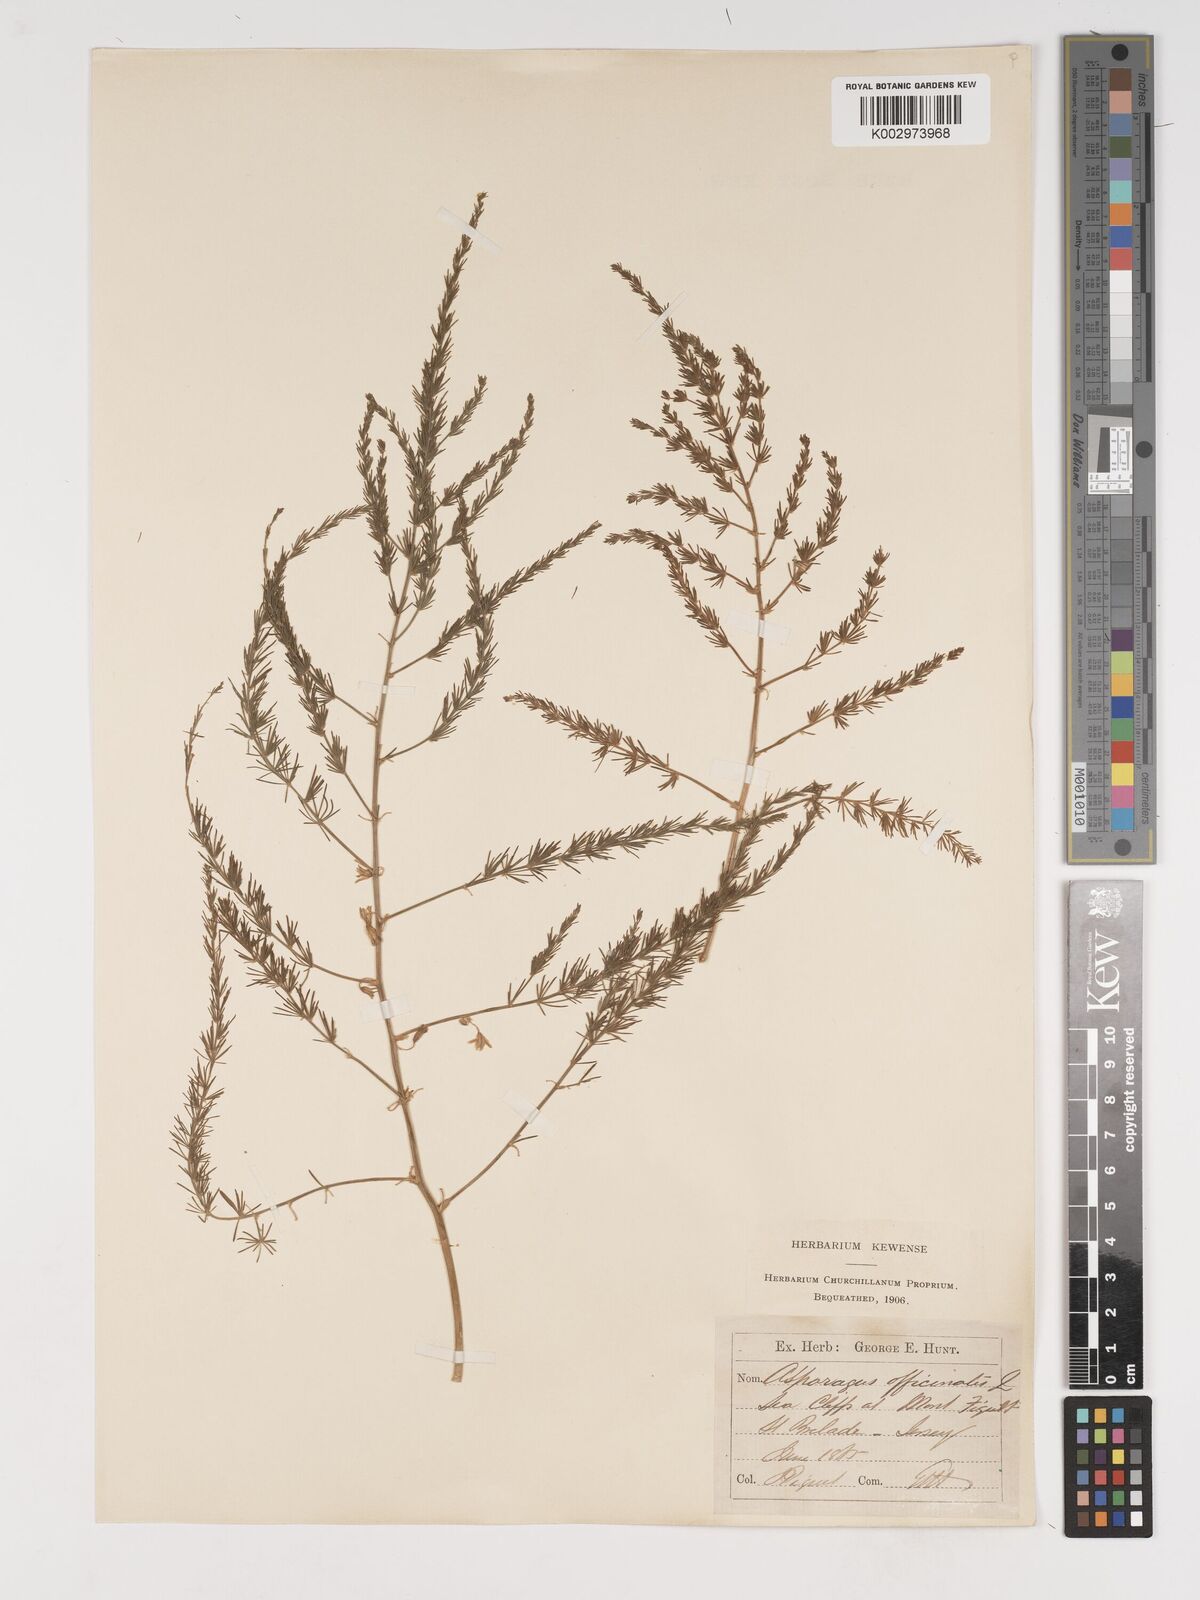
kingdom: Plantae
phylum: Tracheophyta
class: Liliopsida
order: Asparagales
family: Asparagaceae
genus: Asparagus
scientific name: Asparagus maritimus
